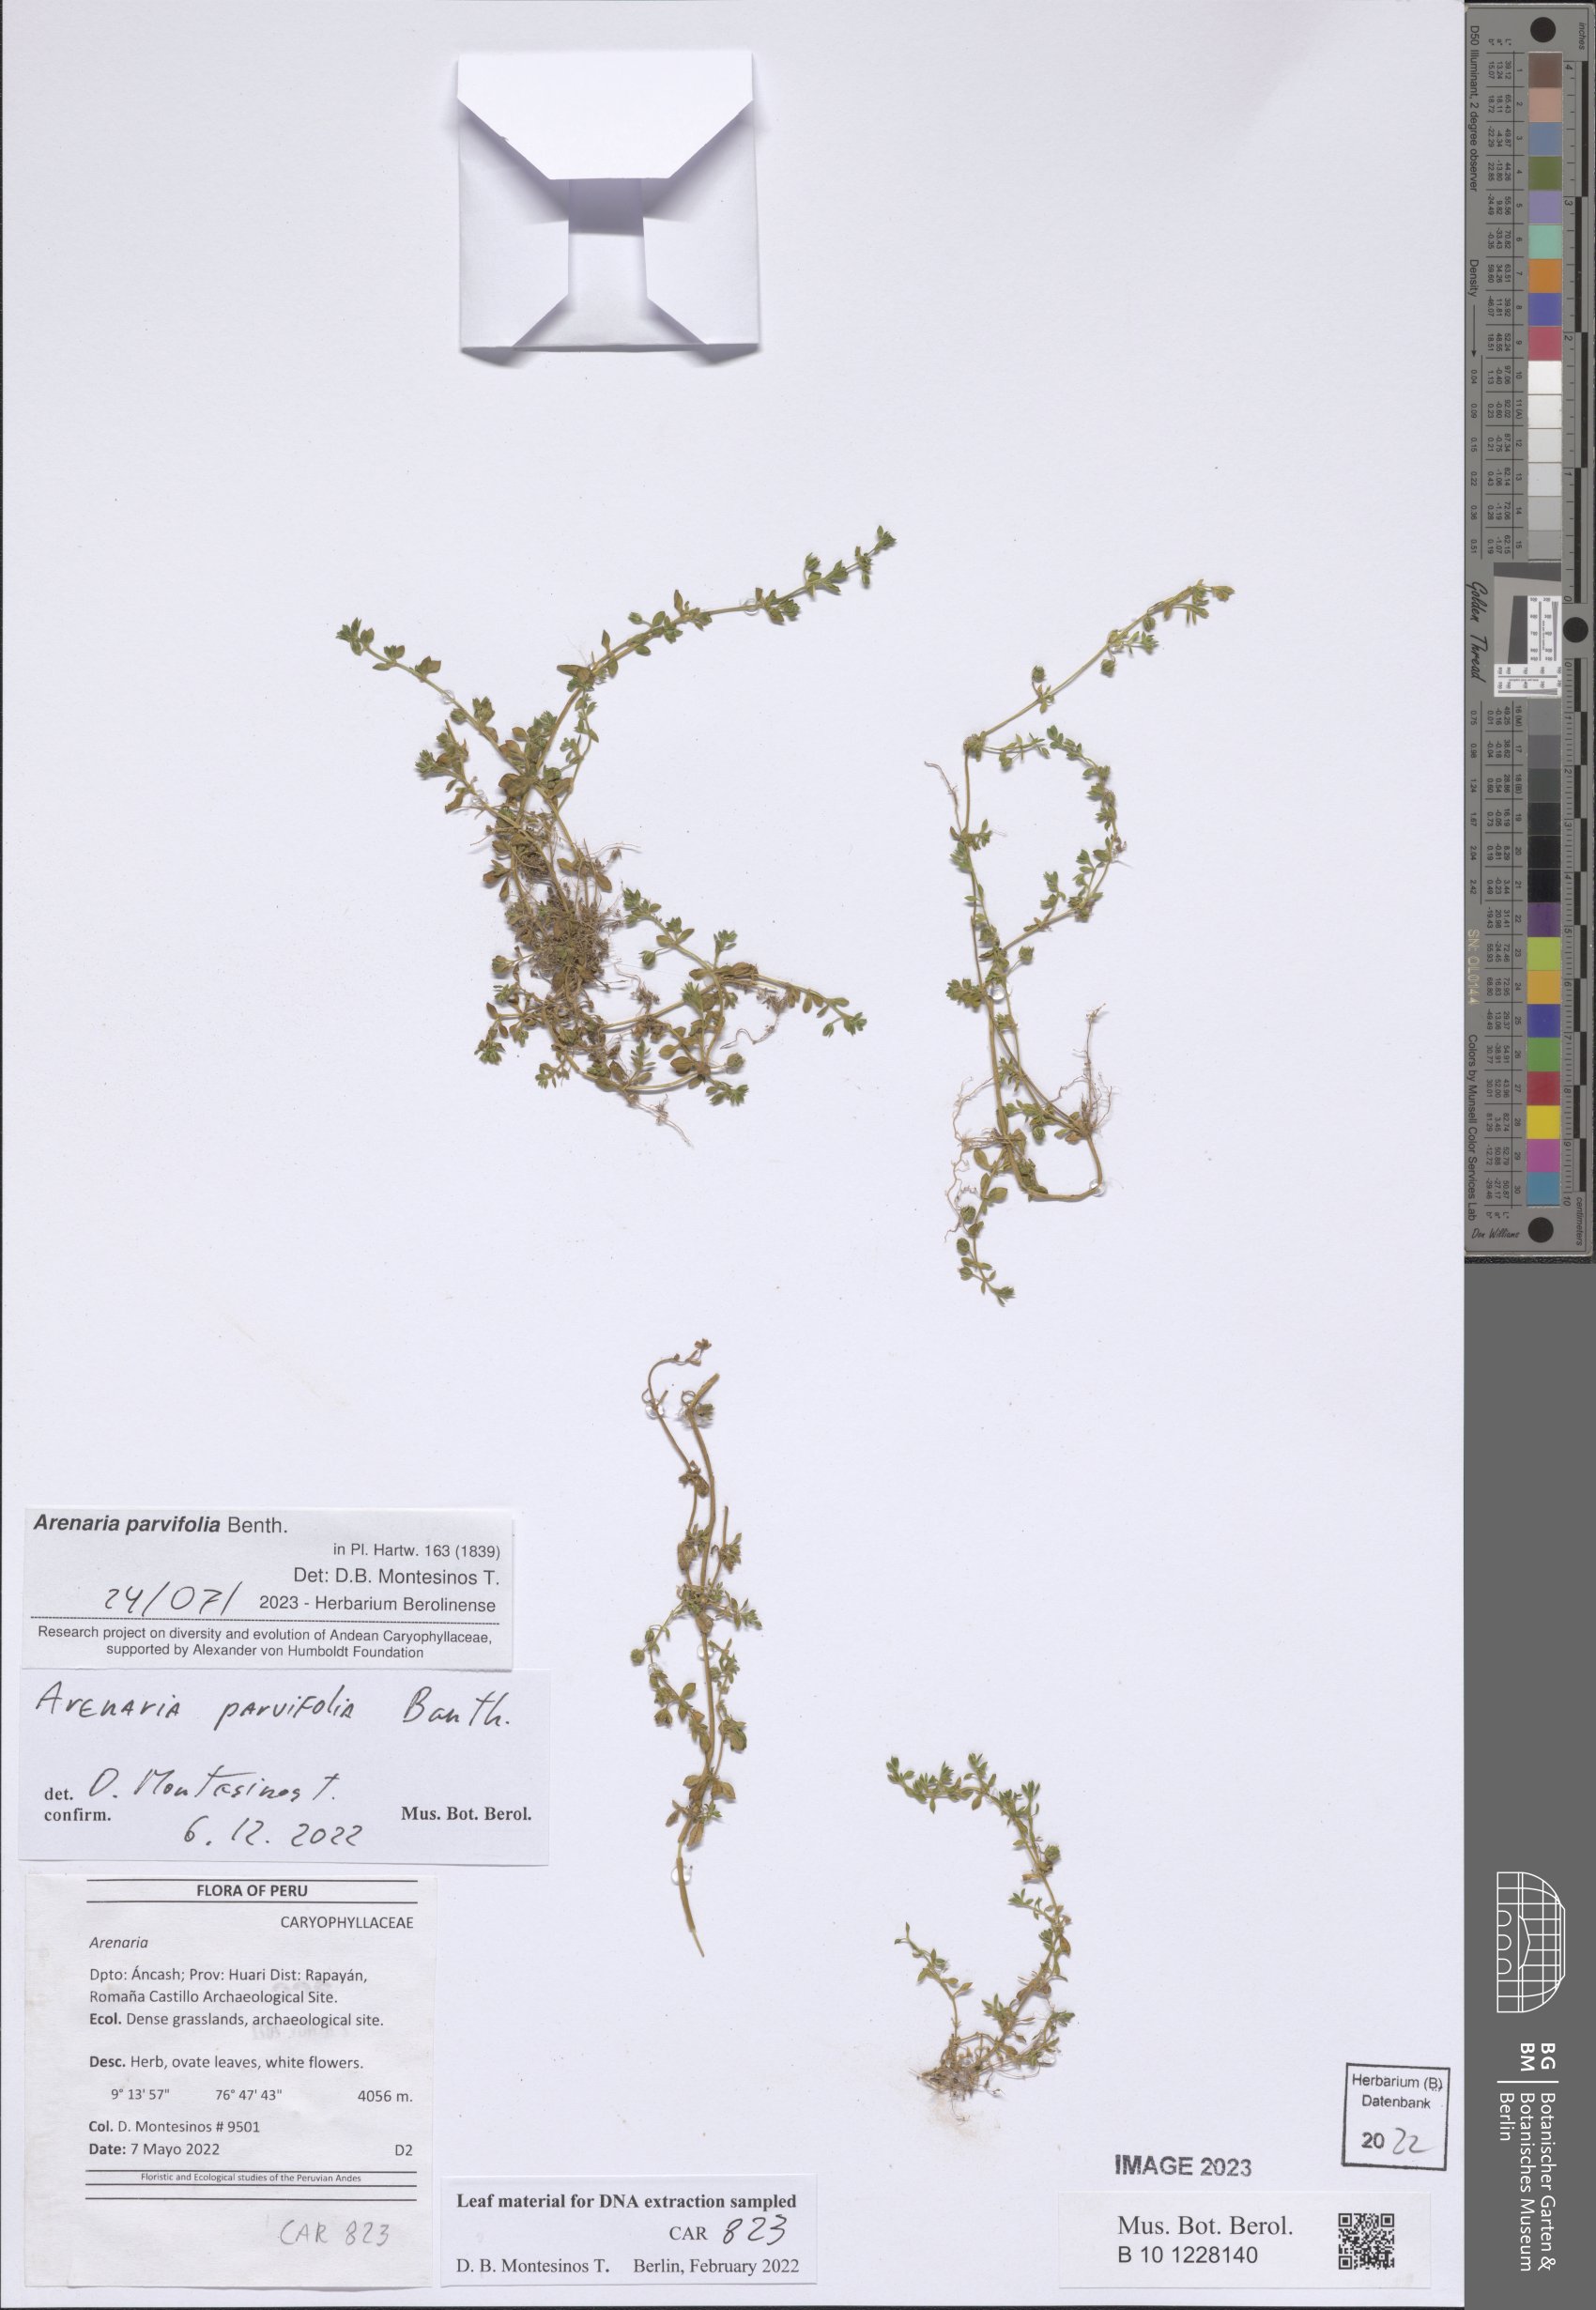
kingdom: Plantae
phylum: Tracheophyta
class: Magnoliopsida
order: Caryophyllales
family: Caryophyllaceae
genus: Arenaria
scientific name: Arenaria
